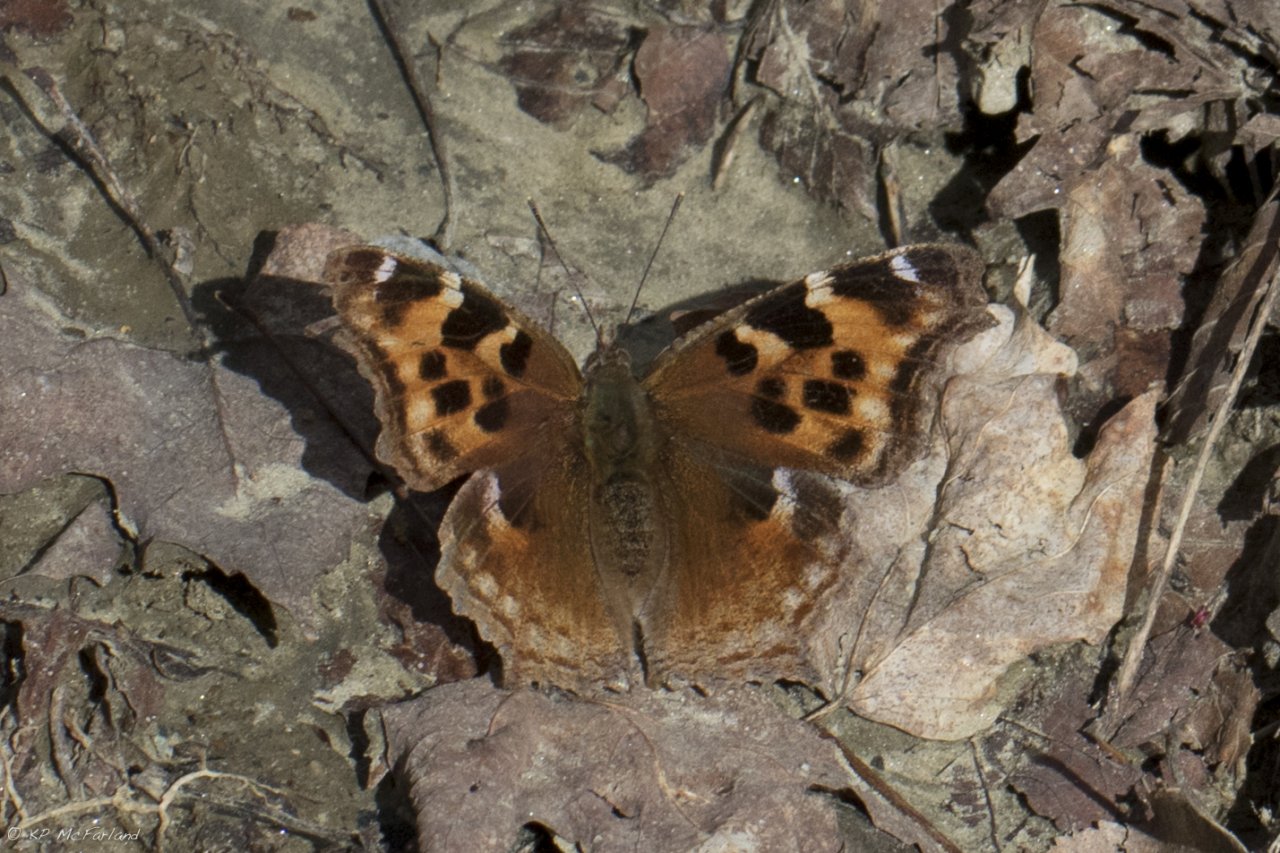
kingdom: Animalia
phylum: Arthropoda
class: Insecta
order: Lepidoptera
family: Nymphalidae
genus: Polygonia
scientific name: Polygonia vaualbum
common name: Compton Tortoiseshell
